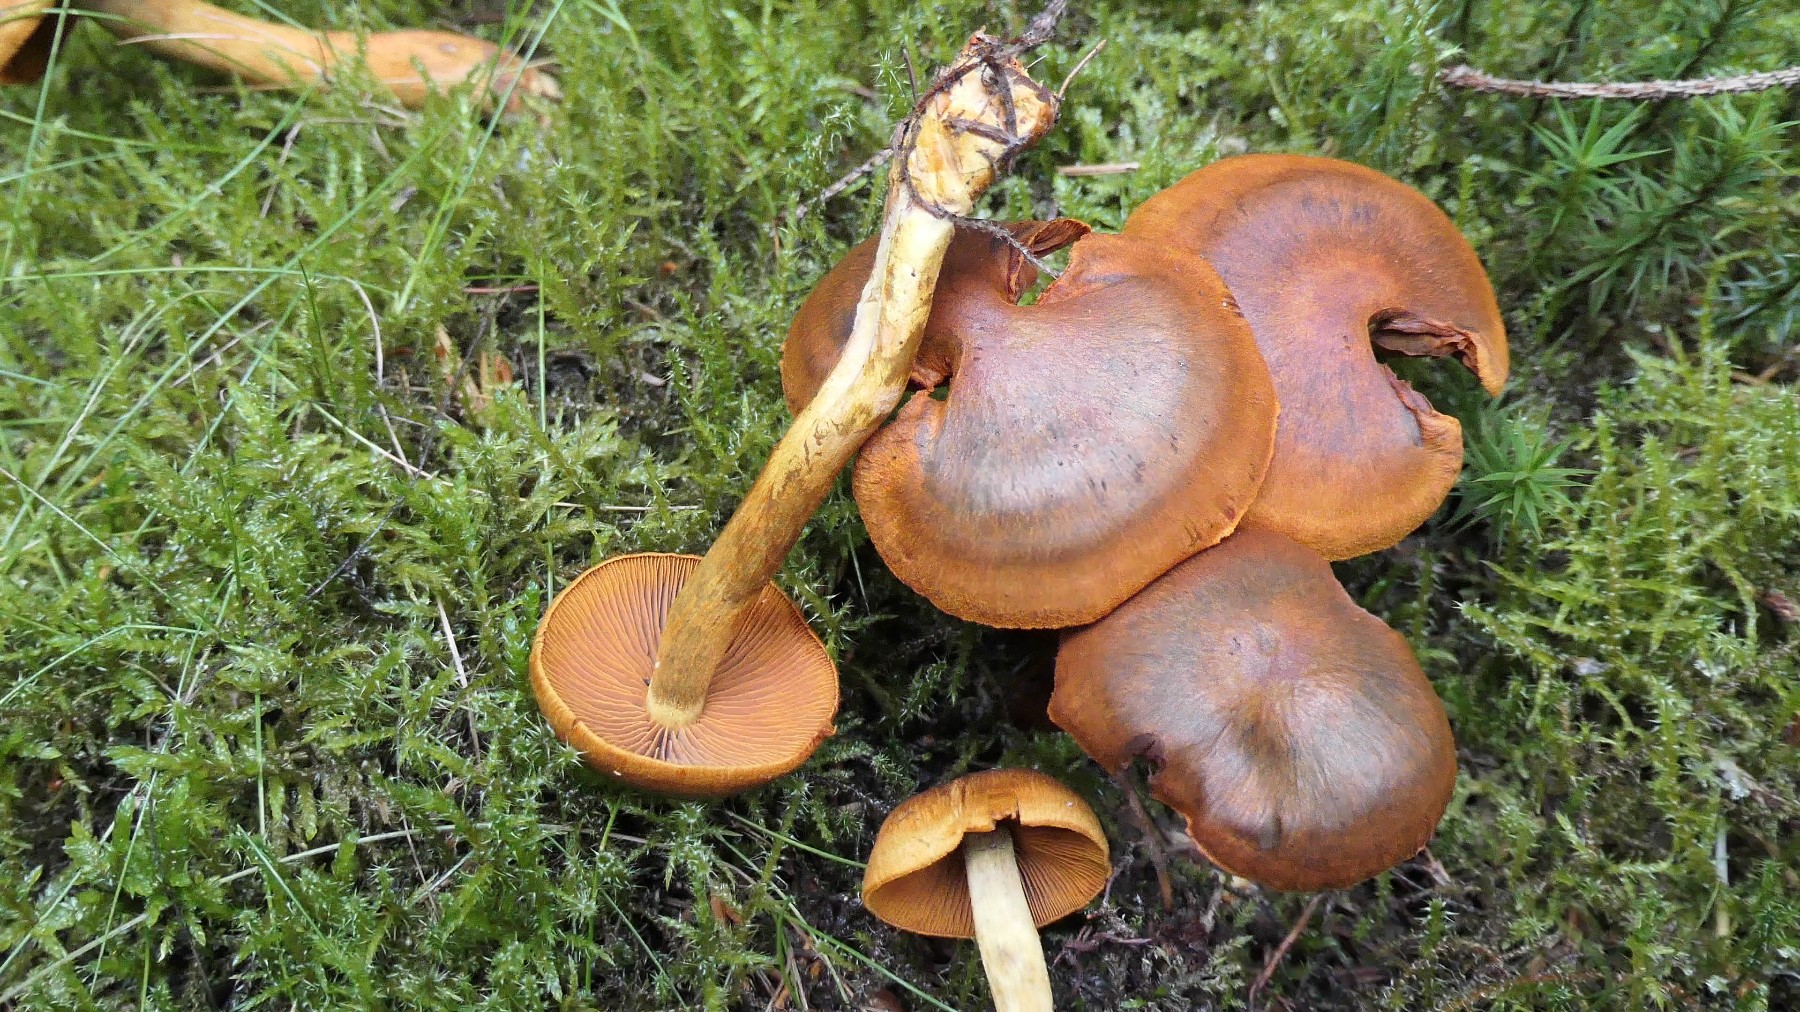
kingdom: Fungi
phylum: Basidiomycota
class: Agaricomycetes
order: Agaricales
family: Cortinariaceae
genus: Cortinarius
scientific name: Cortinarius malicorius
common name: grønkødet slørhat
